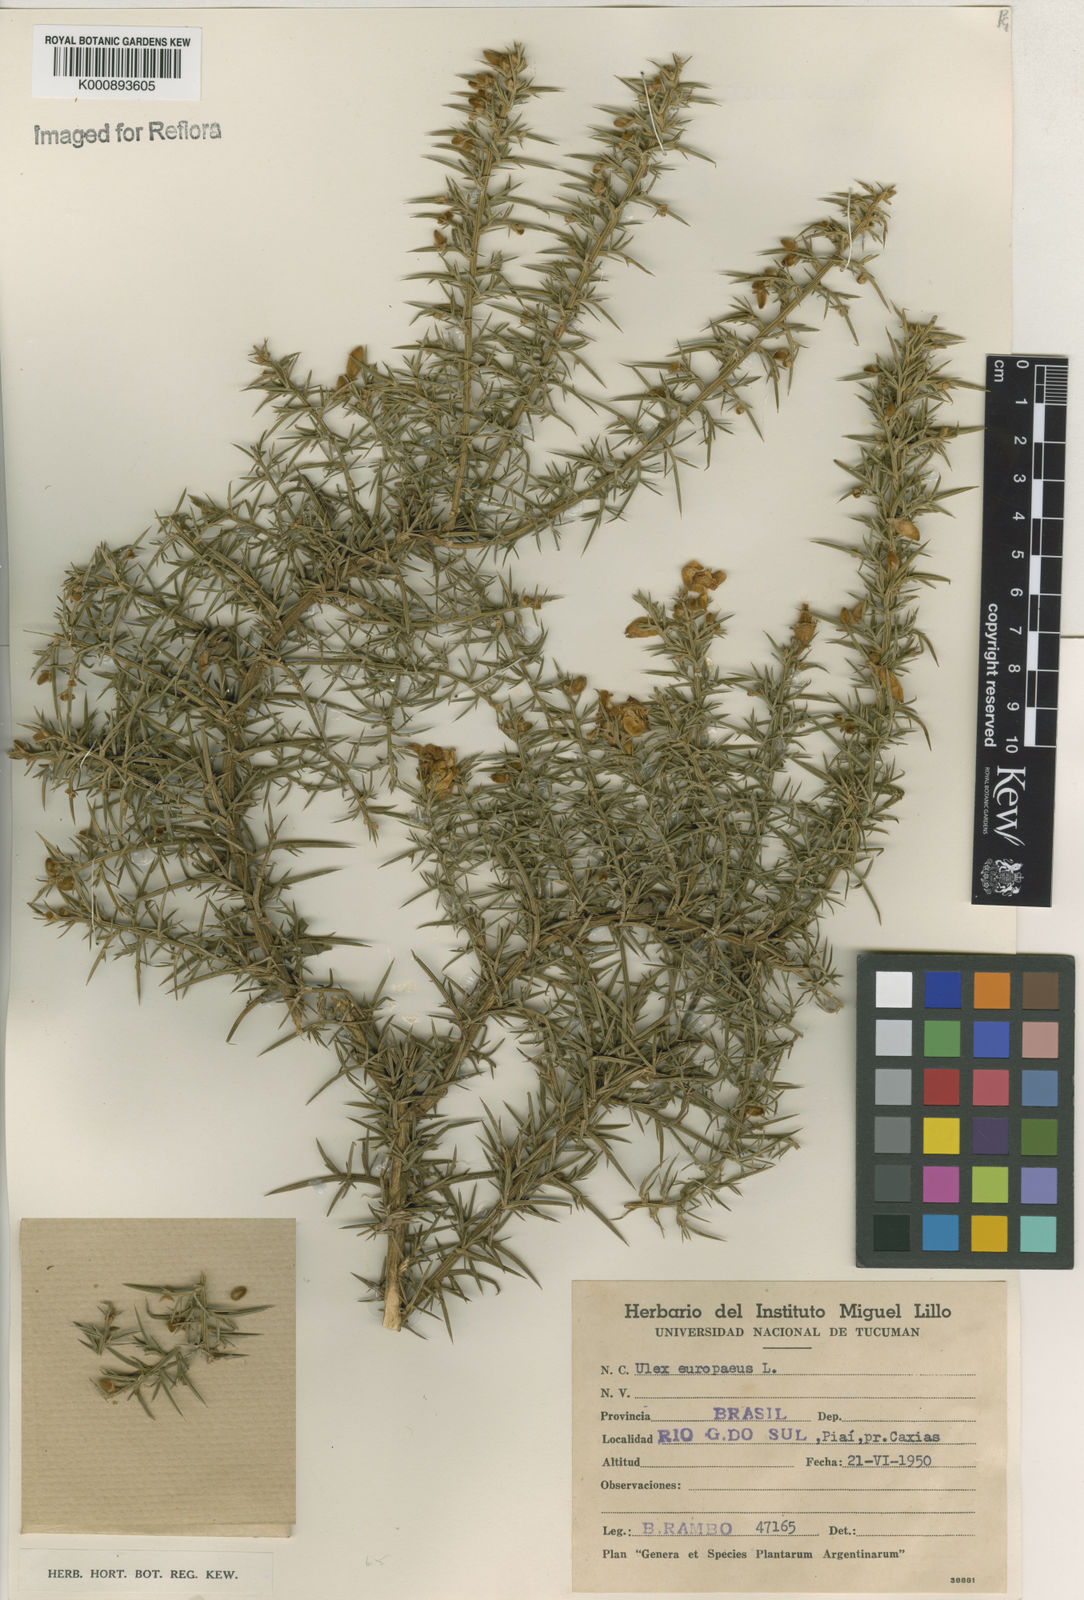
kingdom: Plantae
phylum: Tracheophyta
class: Magnoliopsida
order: Fabales
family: Fabaceae
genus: Ulex
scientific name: Ulex europaeus
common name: Common gorse
